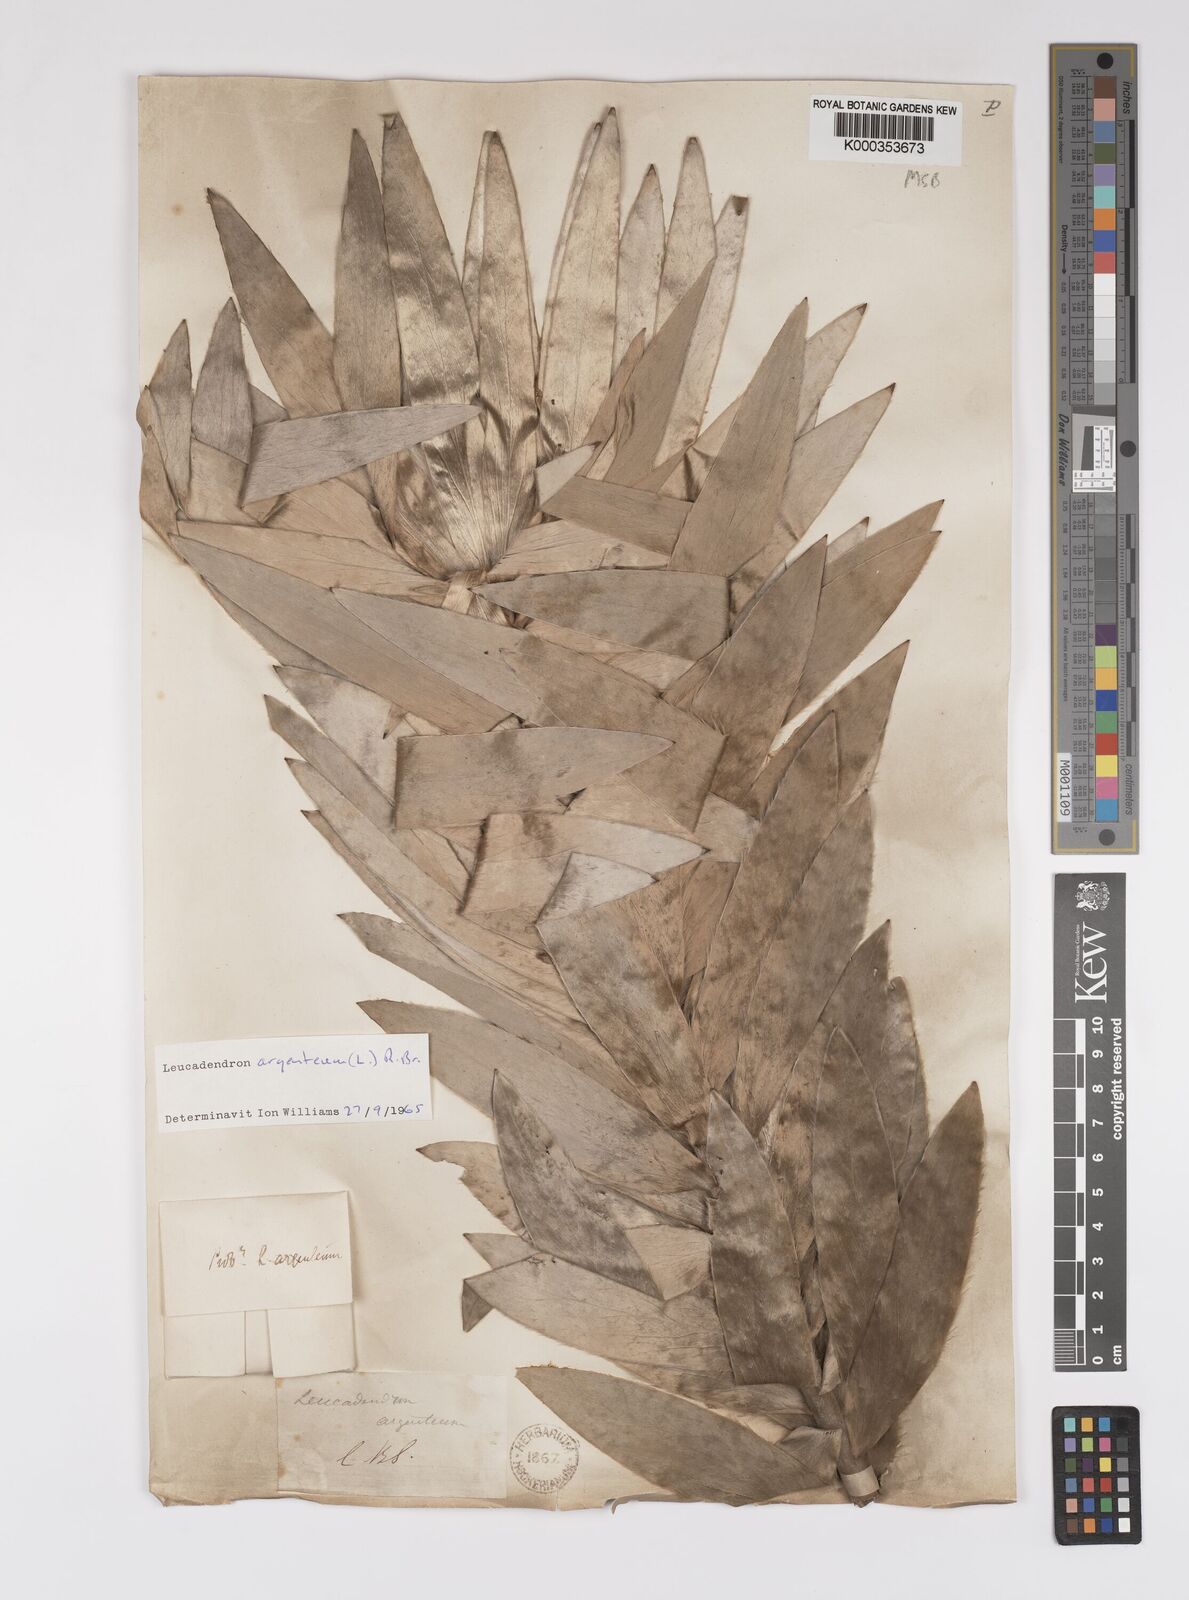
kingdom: Plantae
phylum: Tracheophyta
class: Magnoliopsida
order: Proteales
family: Proteaceae
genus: Leucadendron
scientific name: Leucadendron argenteum
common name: Cape silver tree
